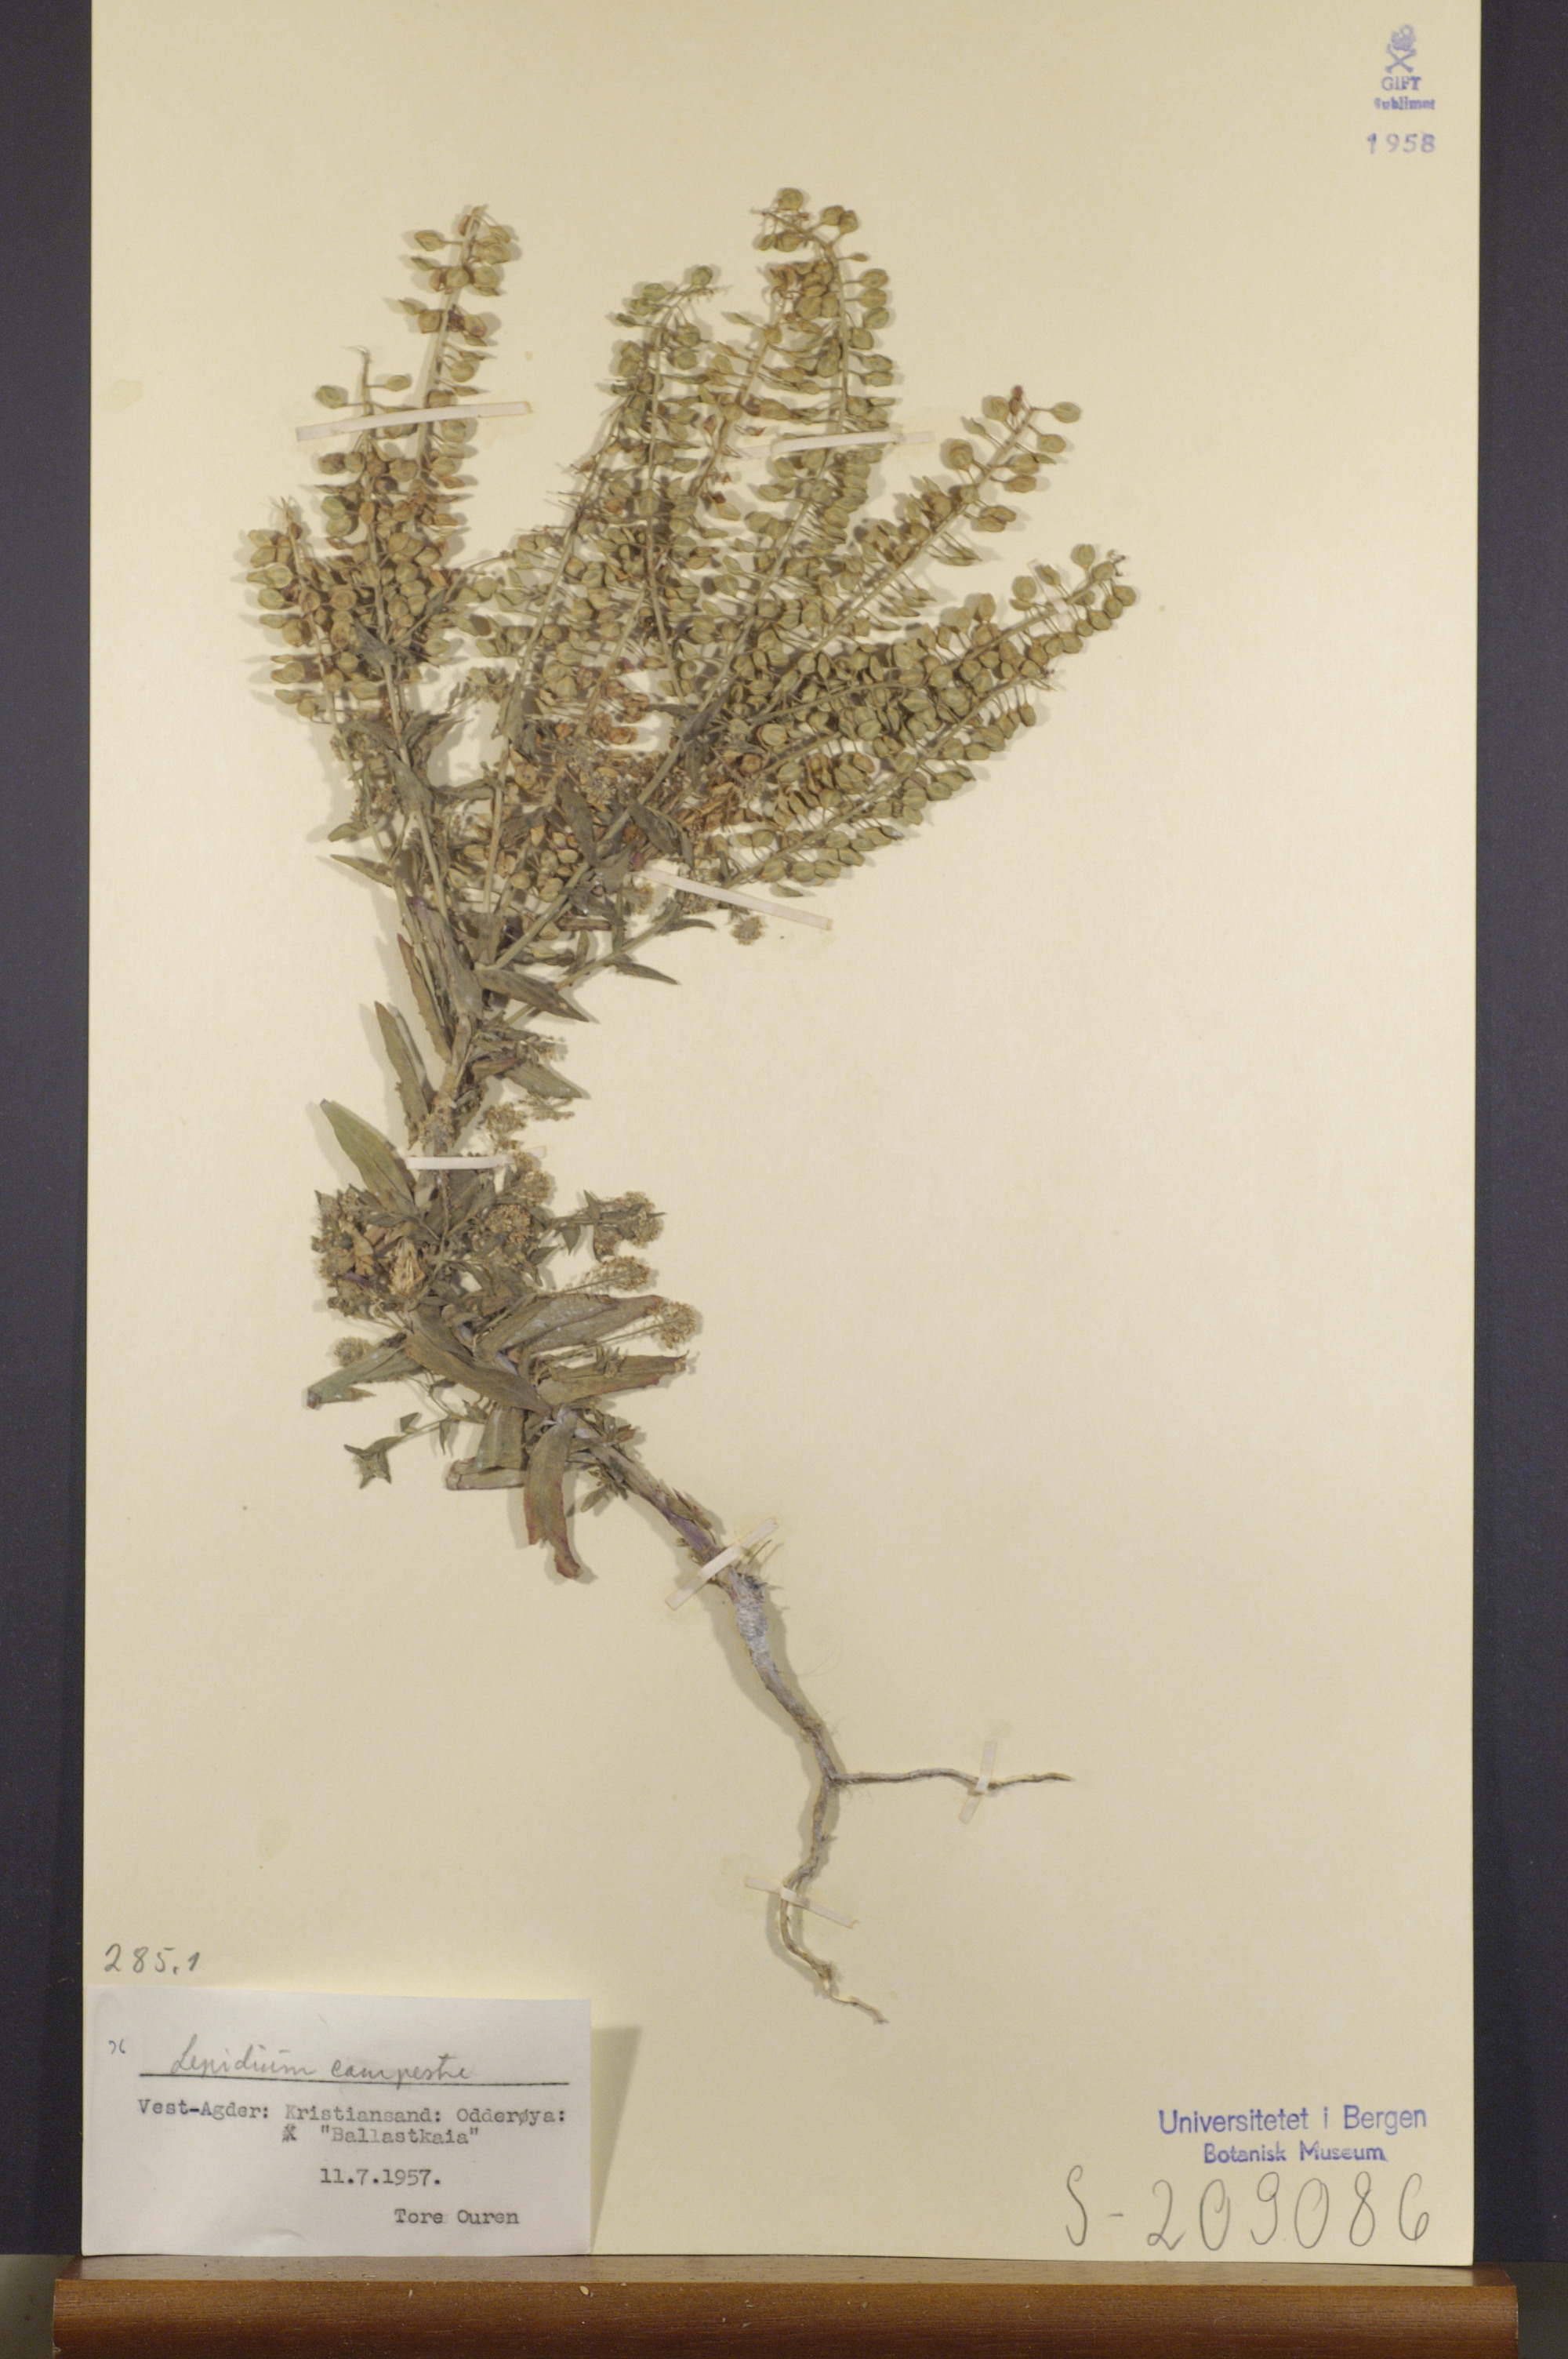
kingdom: Plantae
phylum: Tracheophyta
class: Magnoliopsida
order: Brassicales
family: Brassicaceae
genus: Lepidium
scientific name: Lepidium campestre
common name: Field pepperwort
